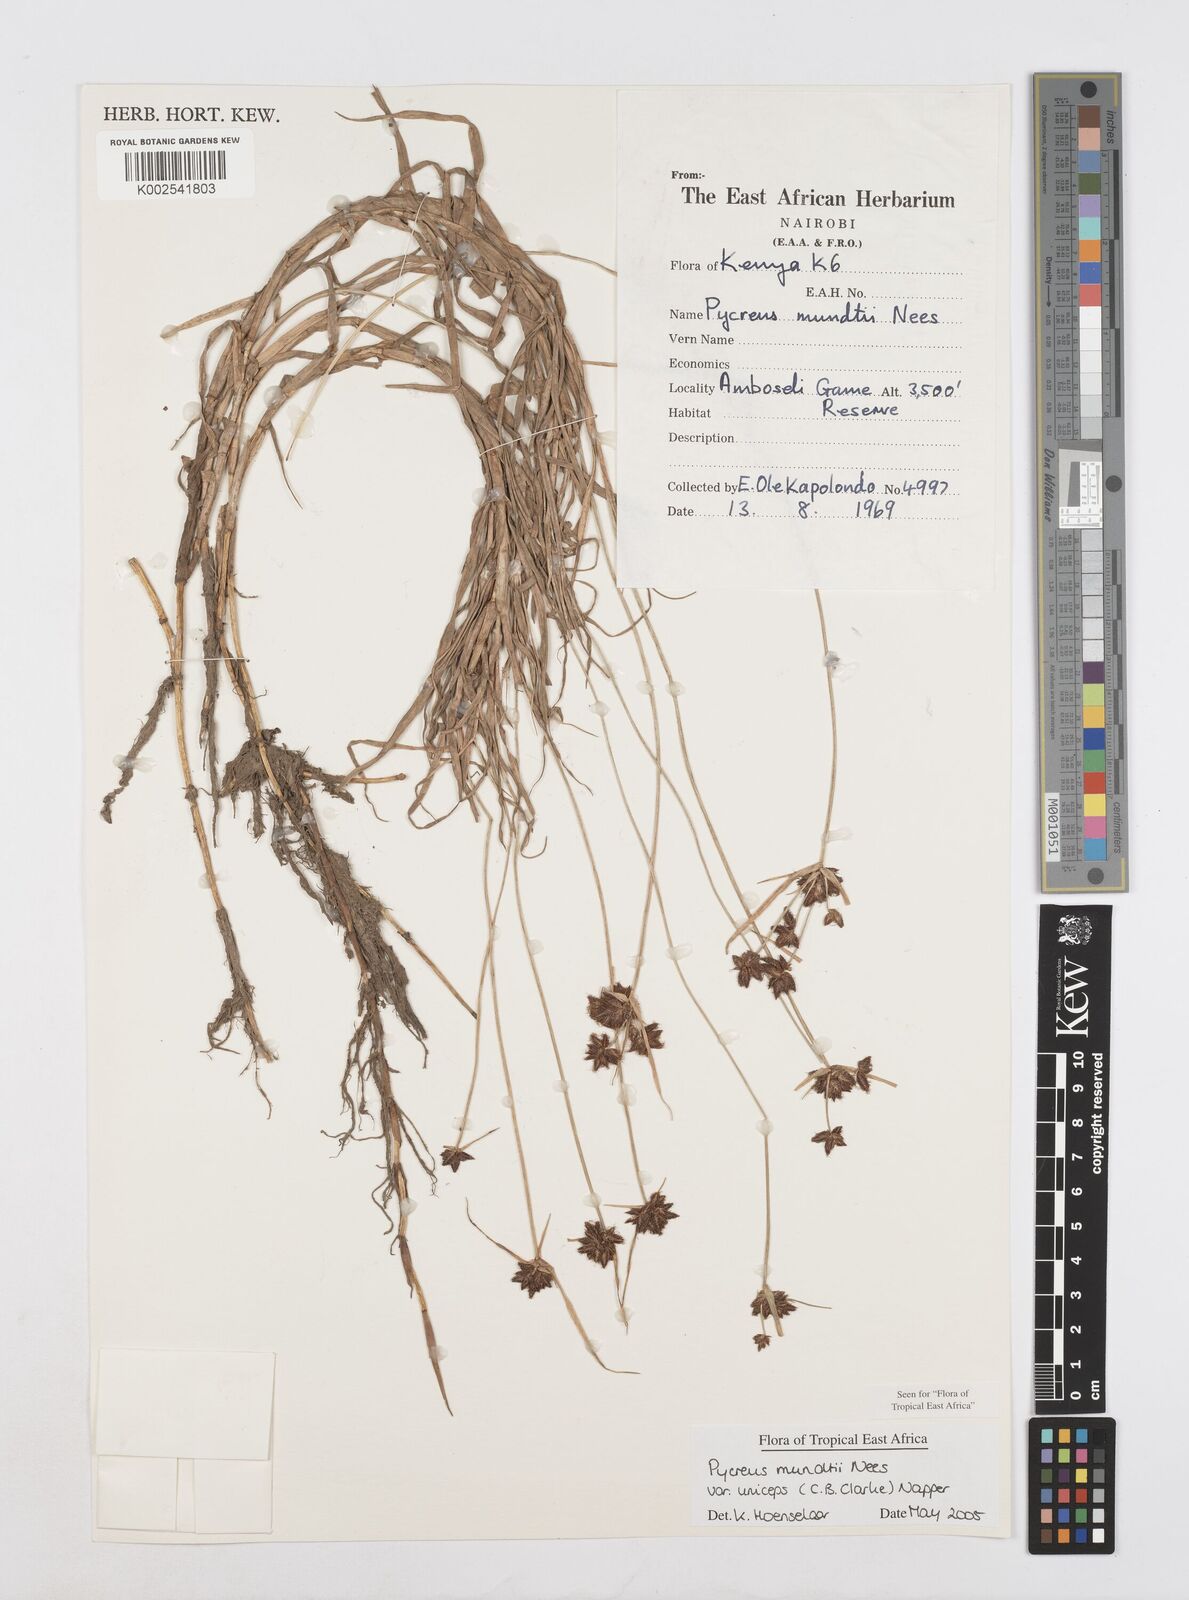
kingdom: Plantae
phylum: Tracheophyta
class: Liliopsida
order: Poales
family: Cyperaceae
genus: Cyperus
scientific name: Cyperus mundii
